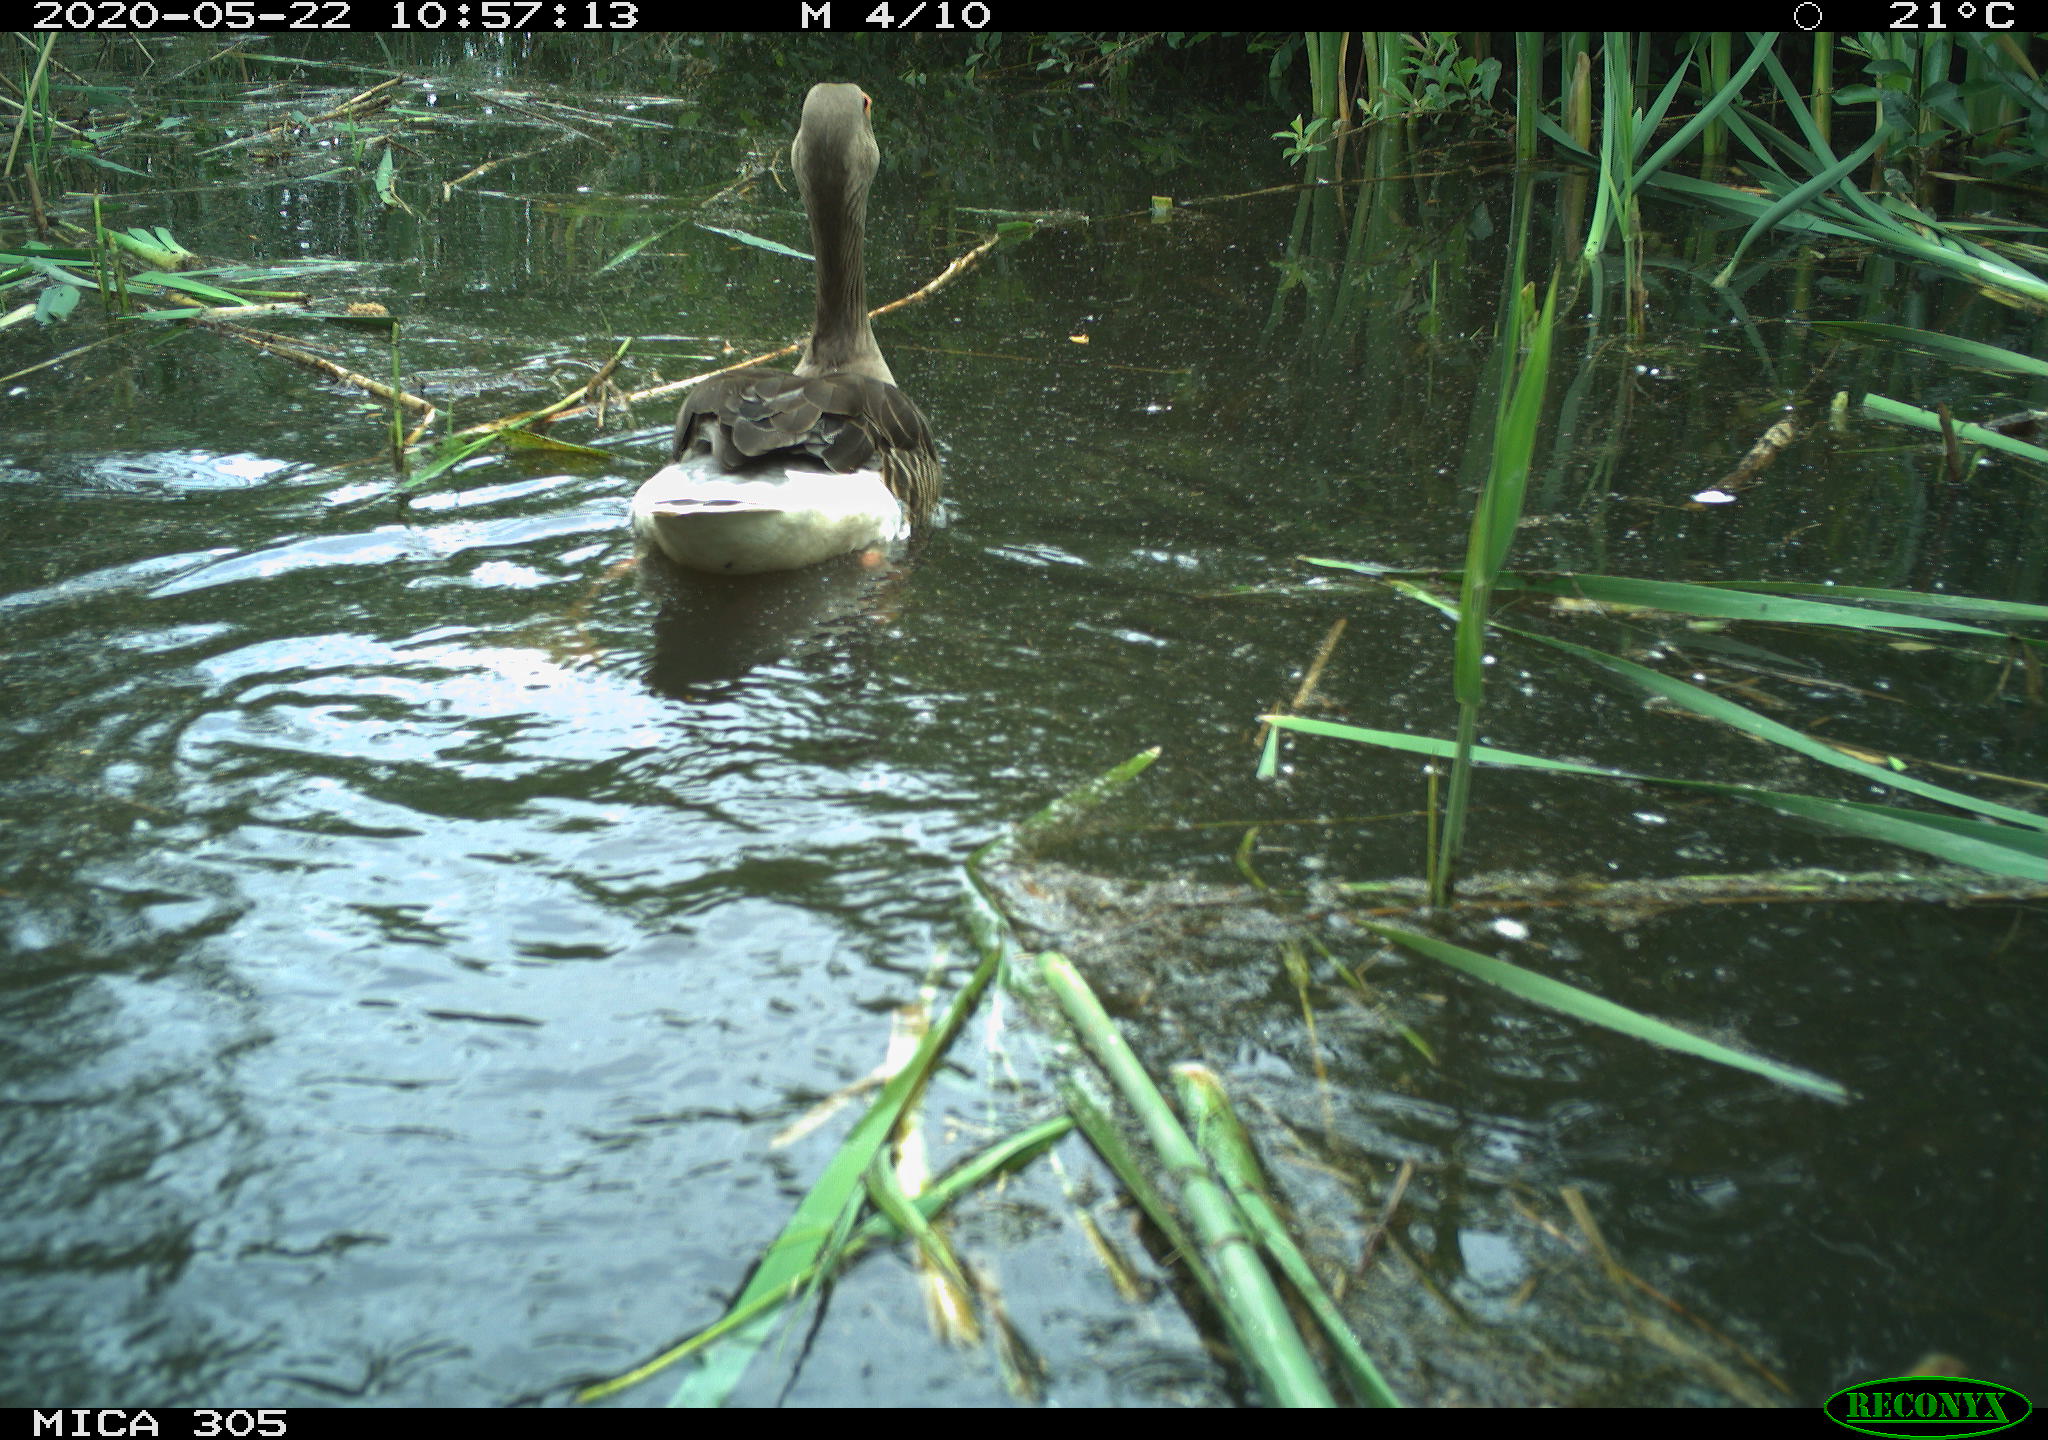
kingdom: Animalia
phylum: Chordata
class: Aves
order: Anseriformes
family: Anatidae
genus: Anser
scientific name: Anser anser
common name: Greylag goose
